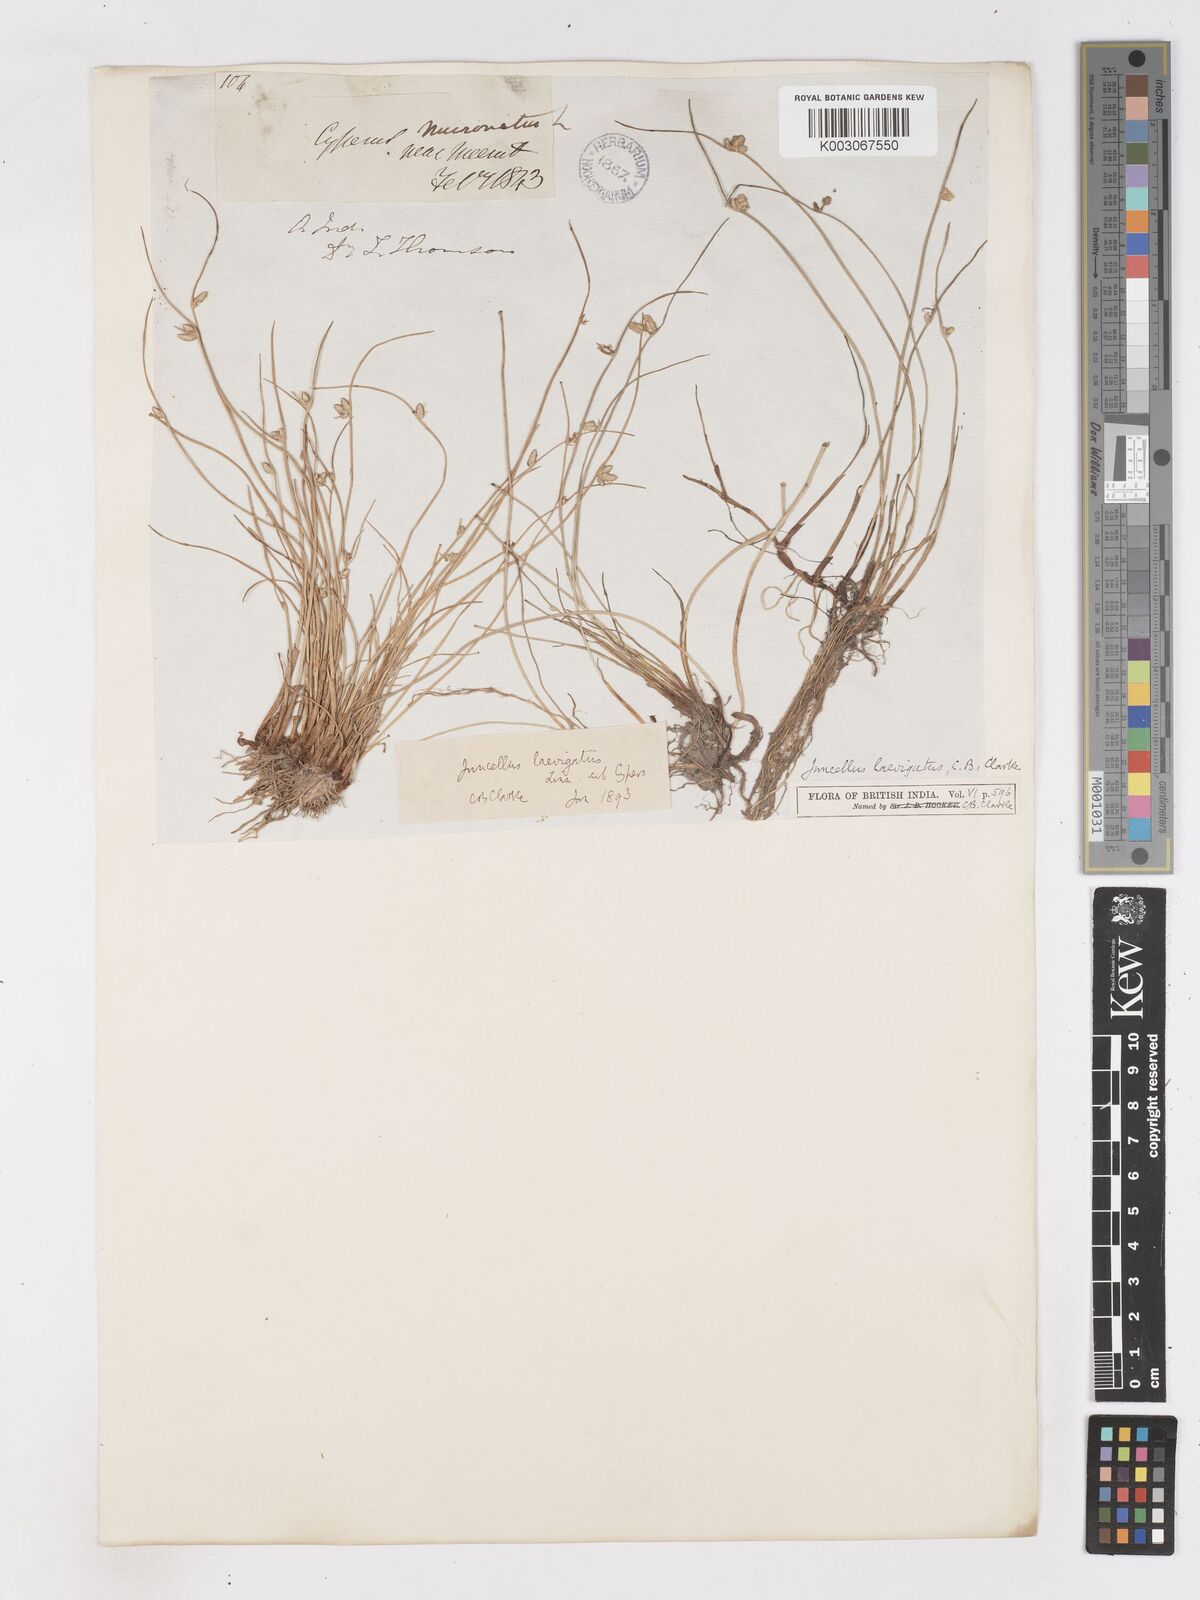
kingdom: Plantae
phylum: Tracheophyta
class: Liliopsida
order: Poales
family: Cyperaceae
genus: Cyperus
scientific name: Cyperus laevigatus
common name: Smooth flat sedge
